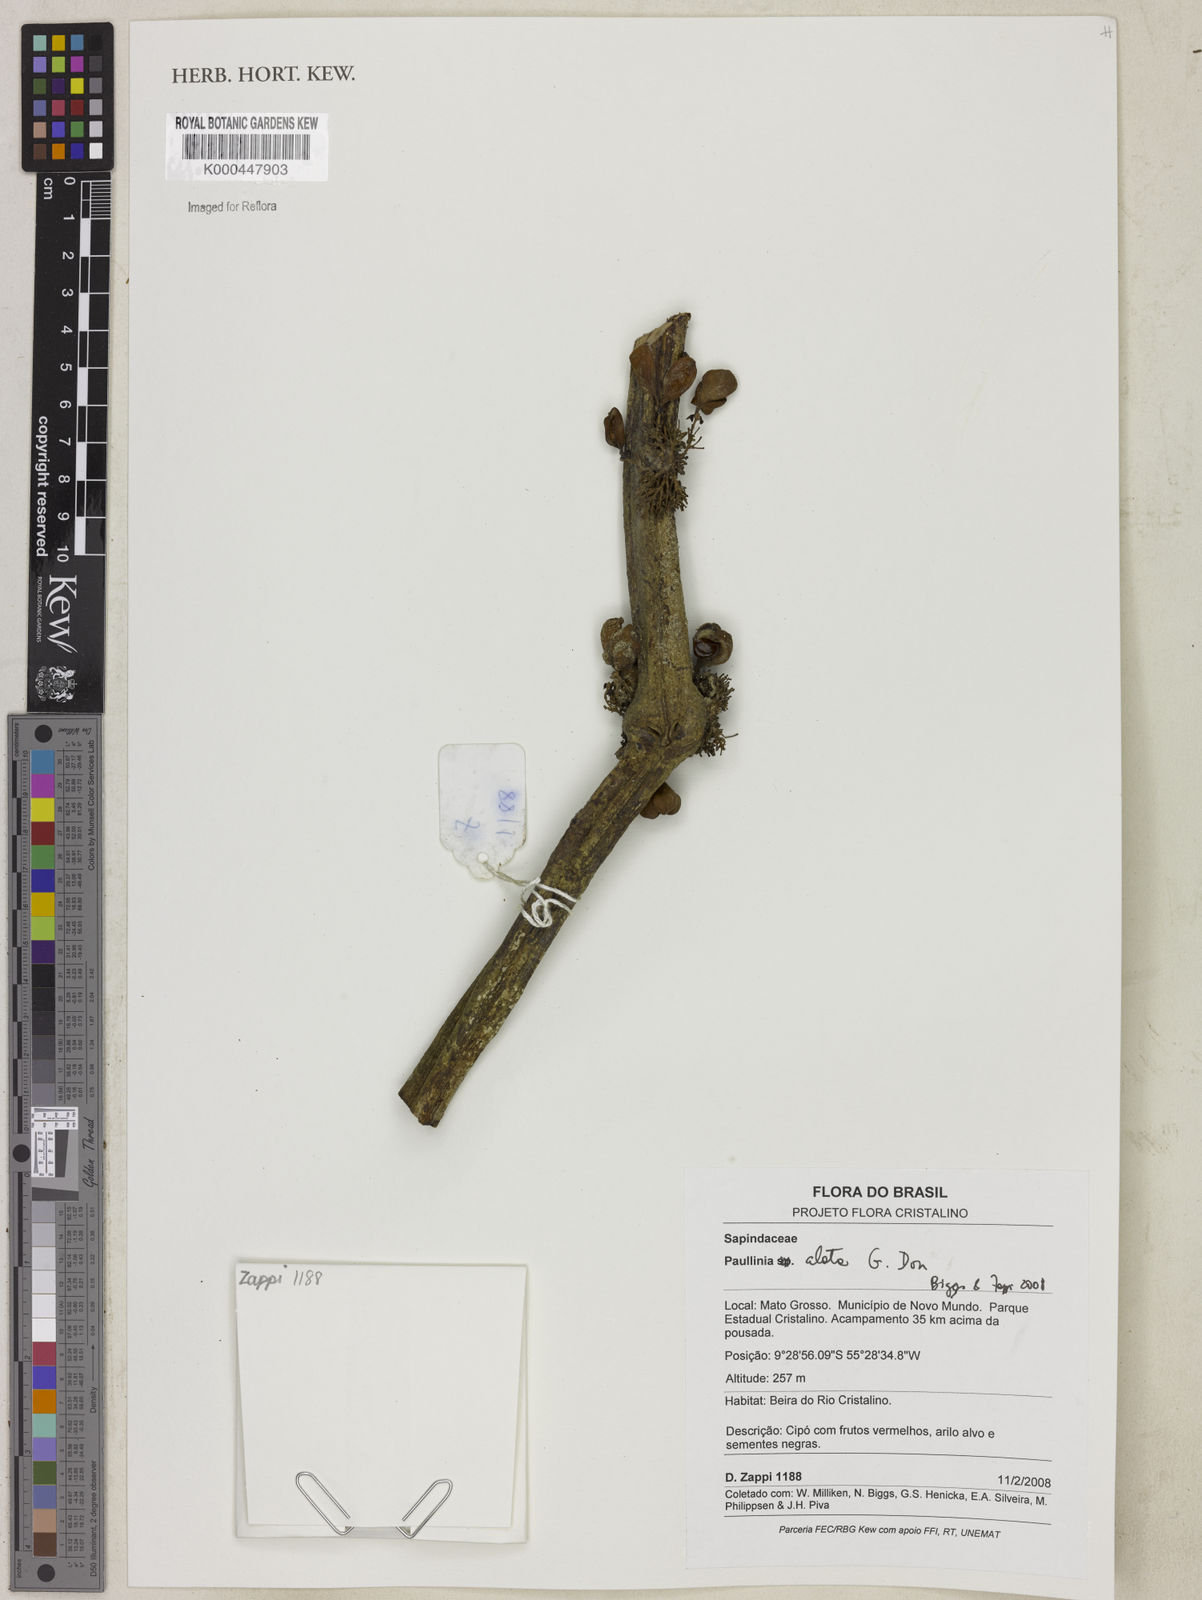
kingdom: Plantae
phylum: Tracheophyta
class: Magnoliopsida
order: Sapindales
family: Sapindaceae
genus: Paullinia
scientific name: Paullinia alata
